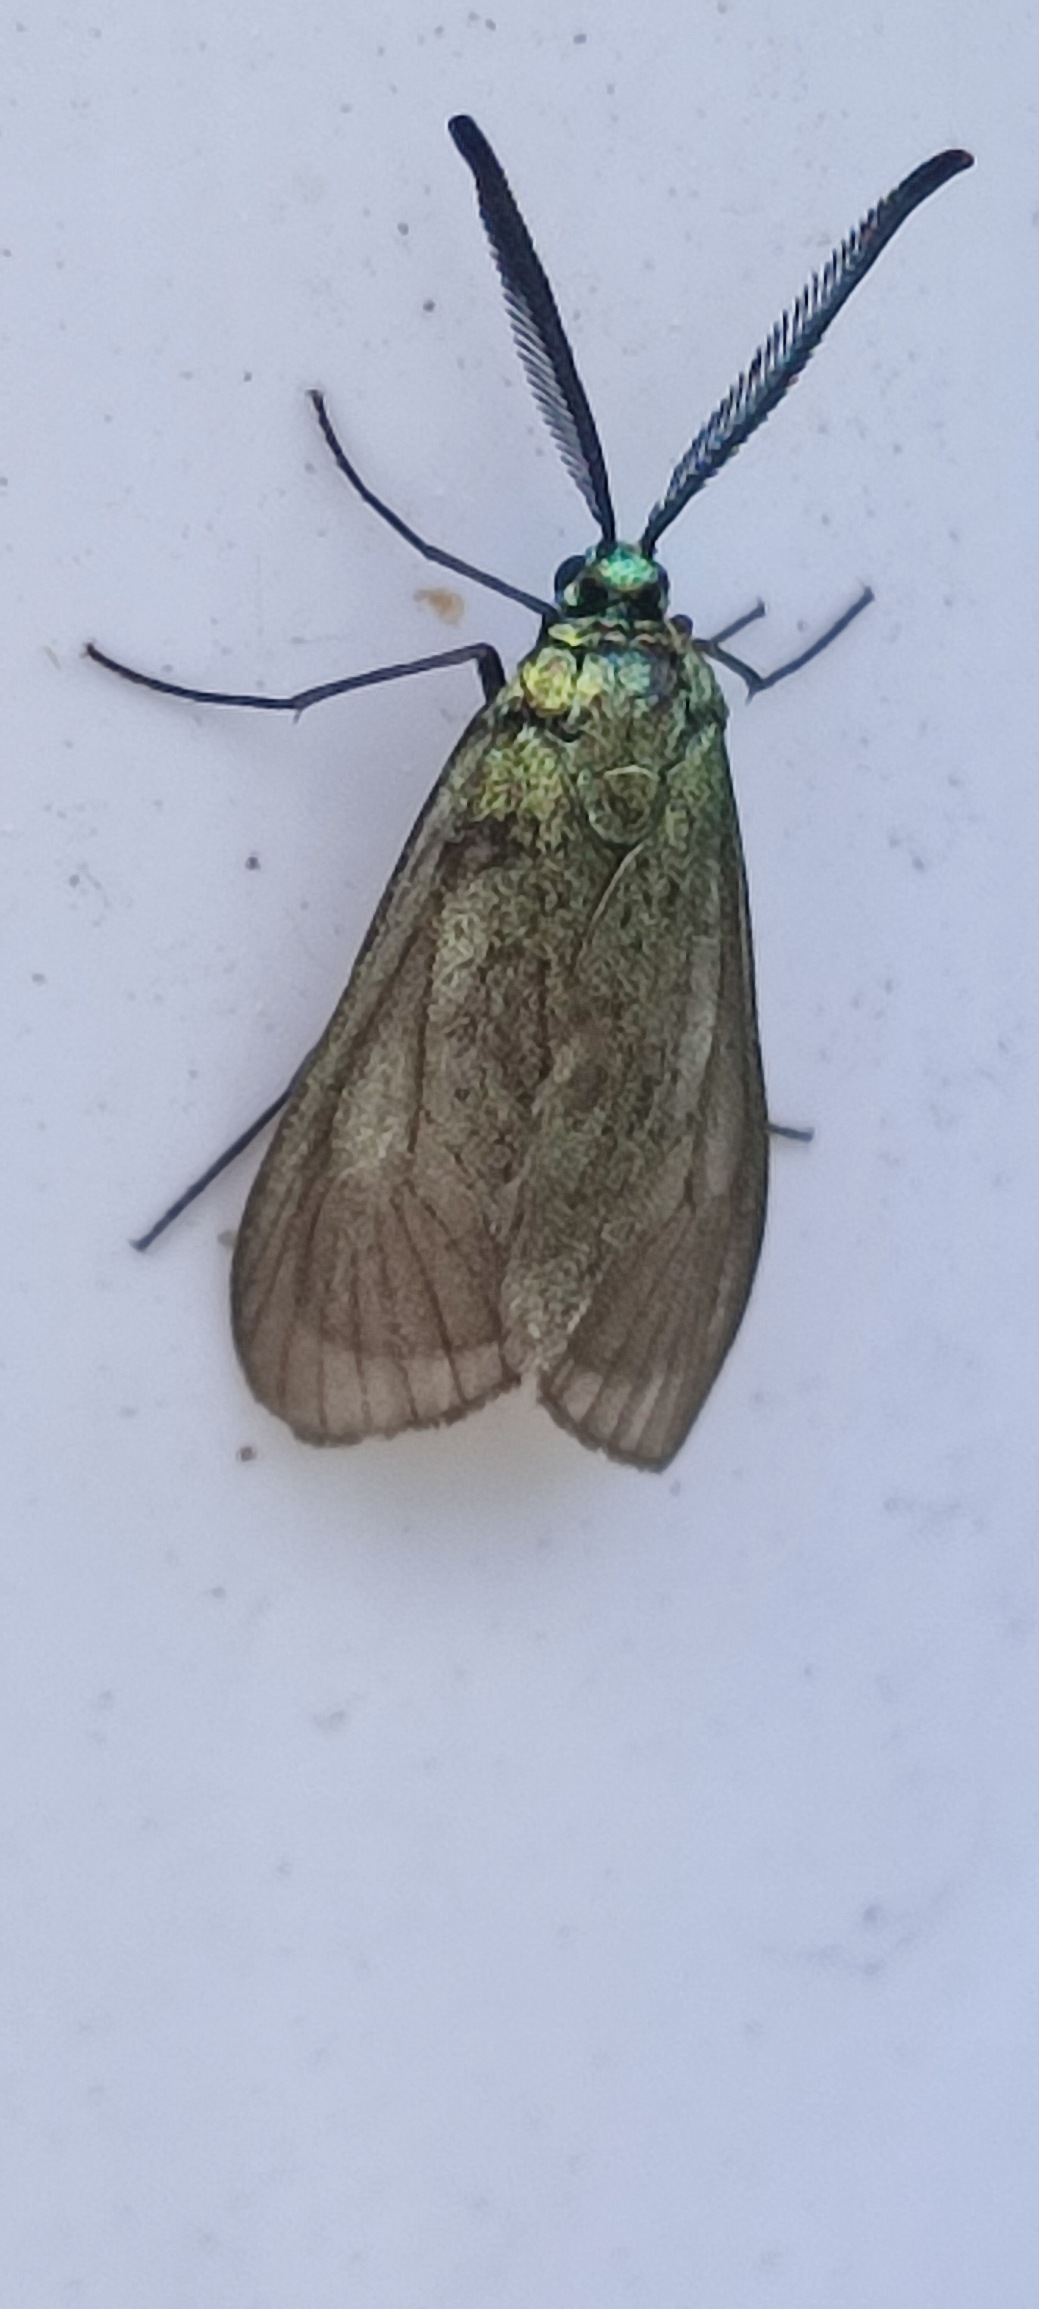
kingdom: Animalia
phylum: Arthropoda
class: Insecta
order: Lepidoptera
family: Zygaenidae
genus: Adscita
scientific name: Adscita statices
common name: Metalvinge
